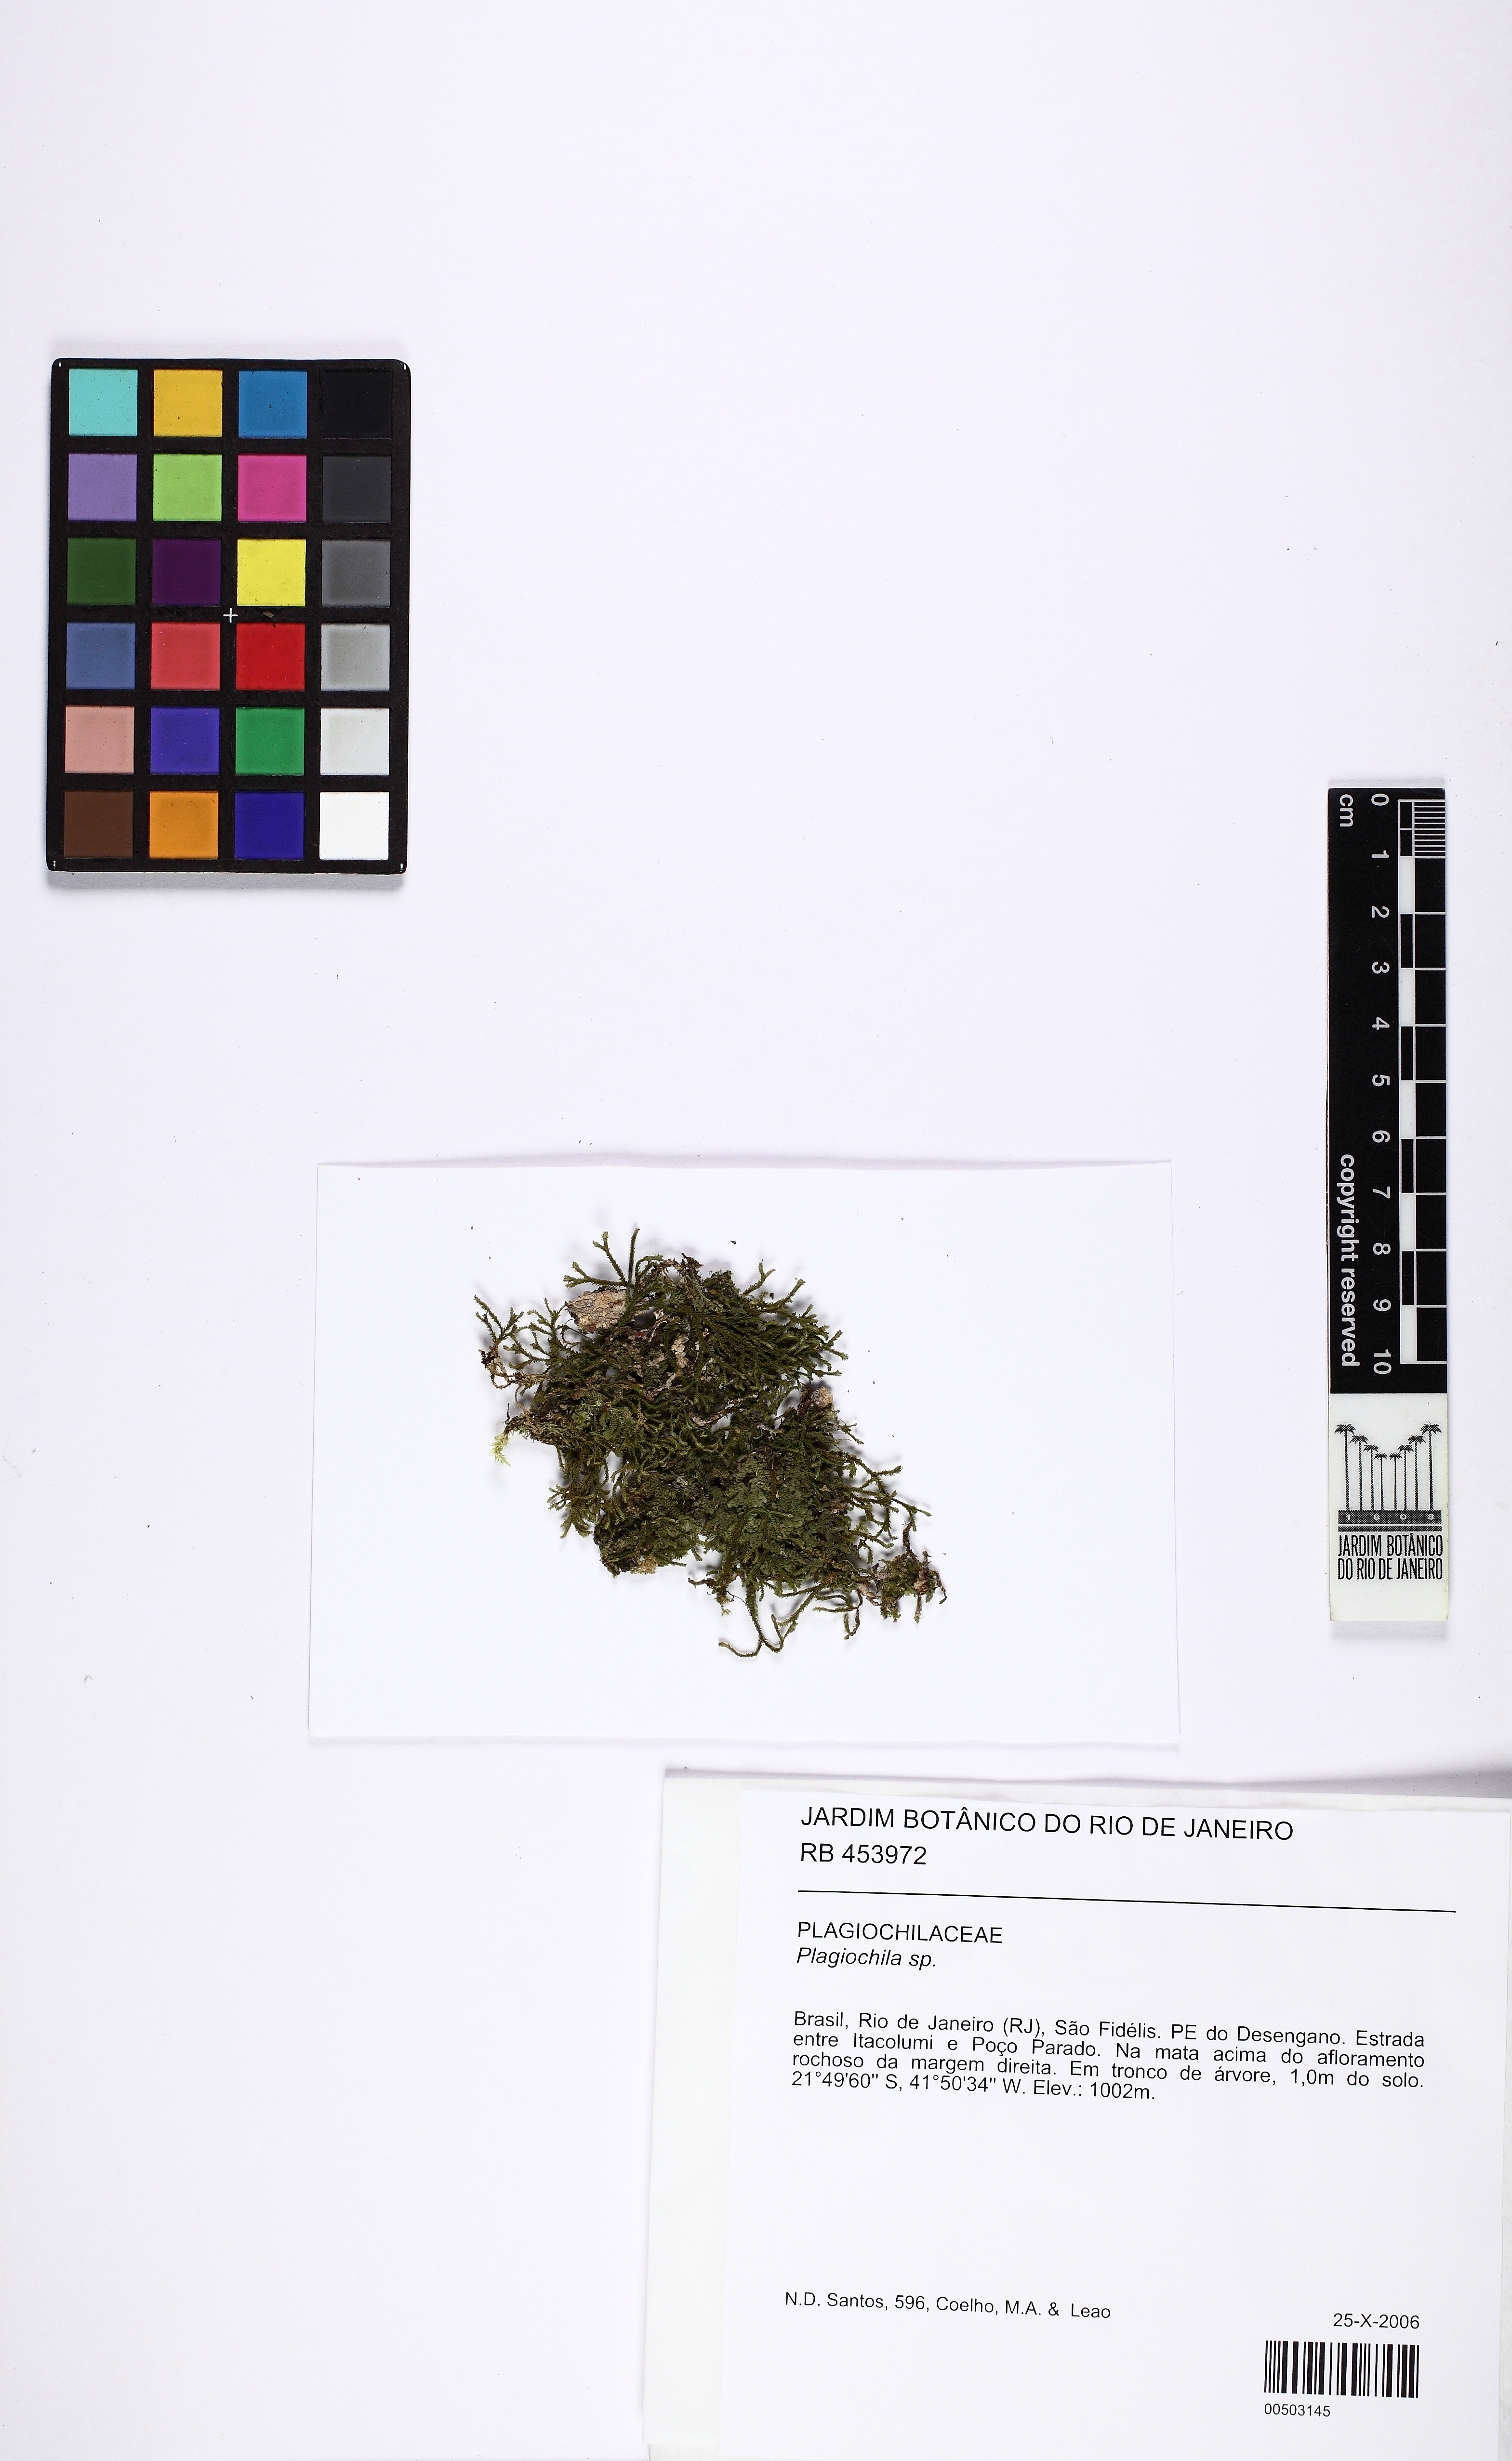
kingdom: Plantae
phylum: Marchantiophyta
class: Jungermanniopsida
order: Jungermanniales
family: Plagiochilaceae
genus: Plagiochila
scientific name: Plagiochila
